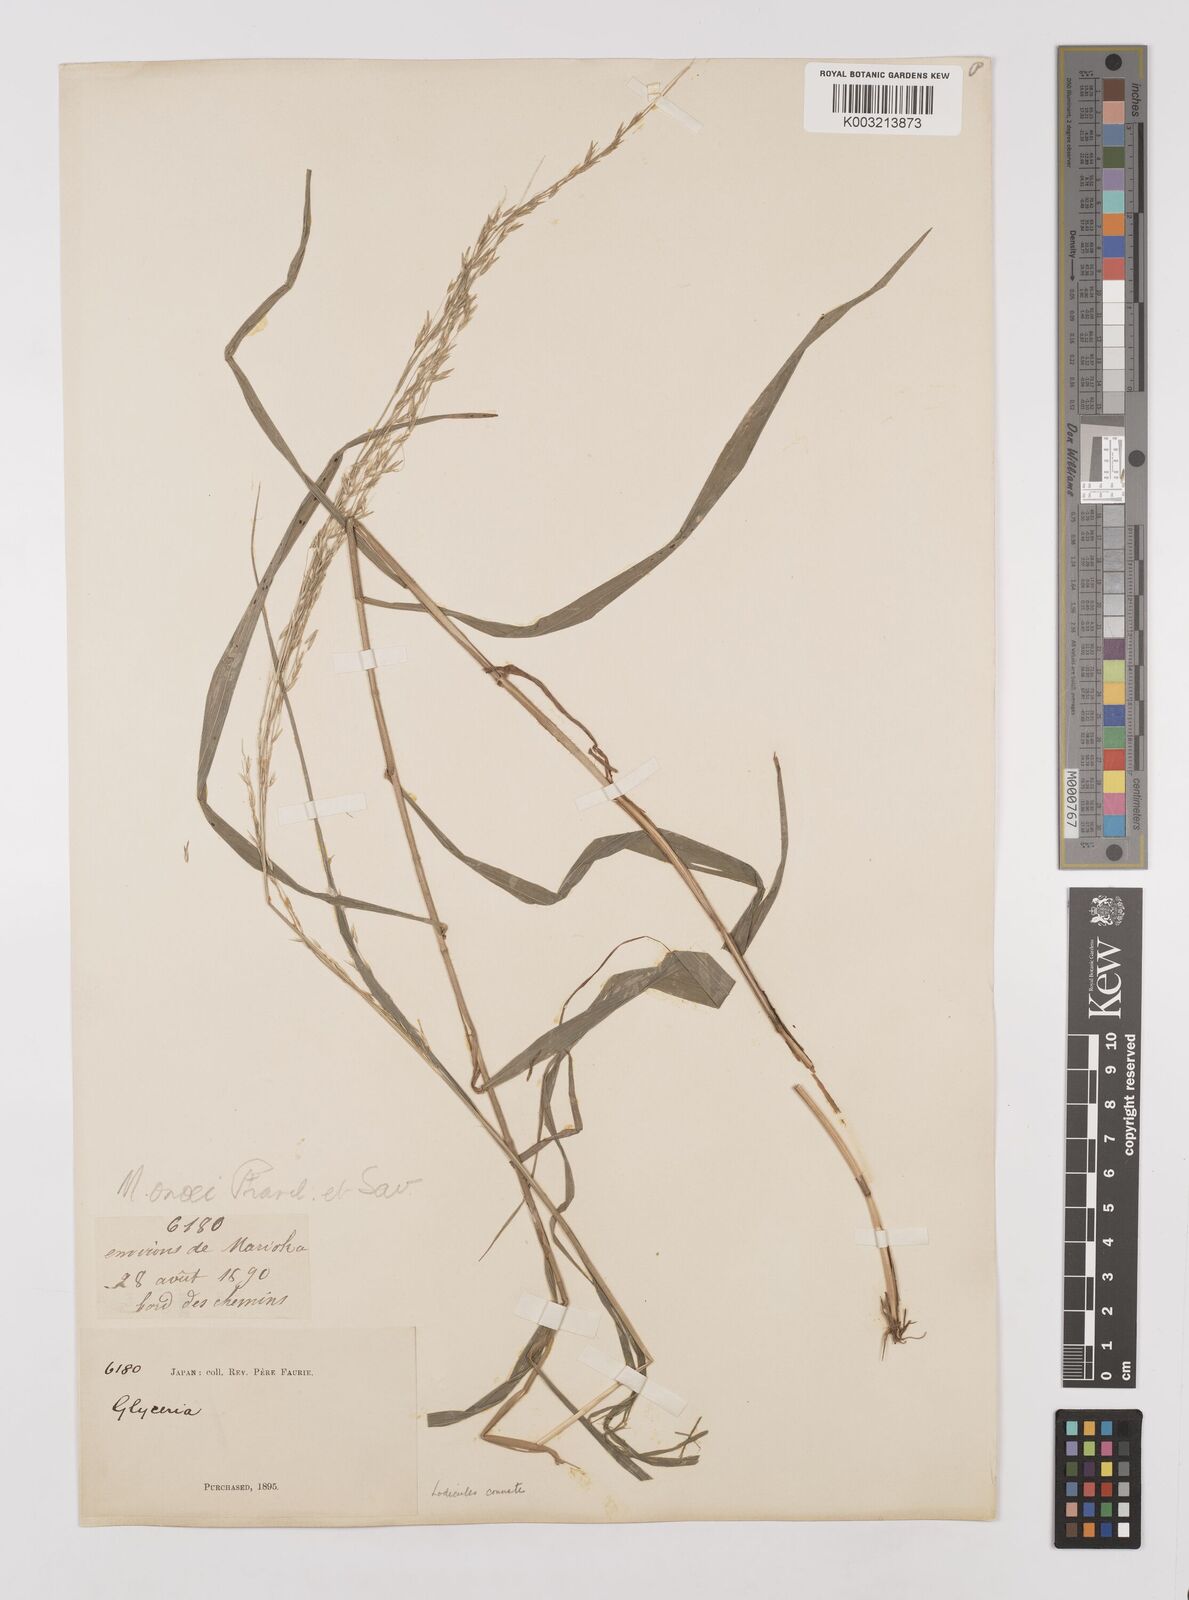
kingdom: Plantae
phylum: Tracheophyta
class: Liliopsida
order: Poales
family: Poaceae
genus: Melica
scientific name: Melica onoei
